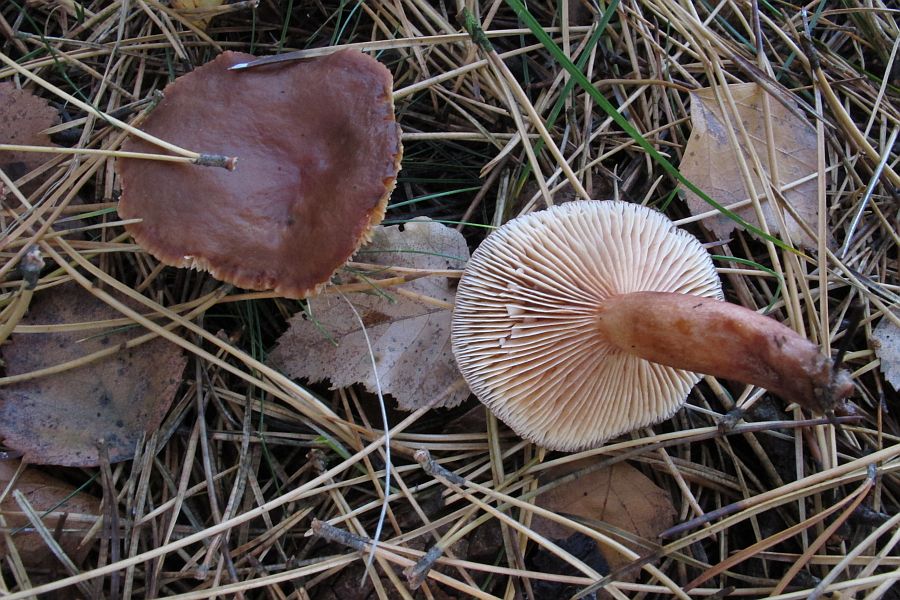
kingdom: Fungi
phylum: Basidiomycota
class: Agaricomycetes
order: Russulales
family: Russulaceae
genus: Lactarius
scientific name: Lactarius hepaticus
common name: leverbrun mælkehat
